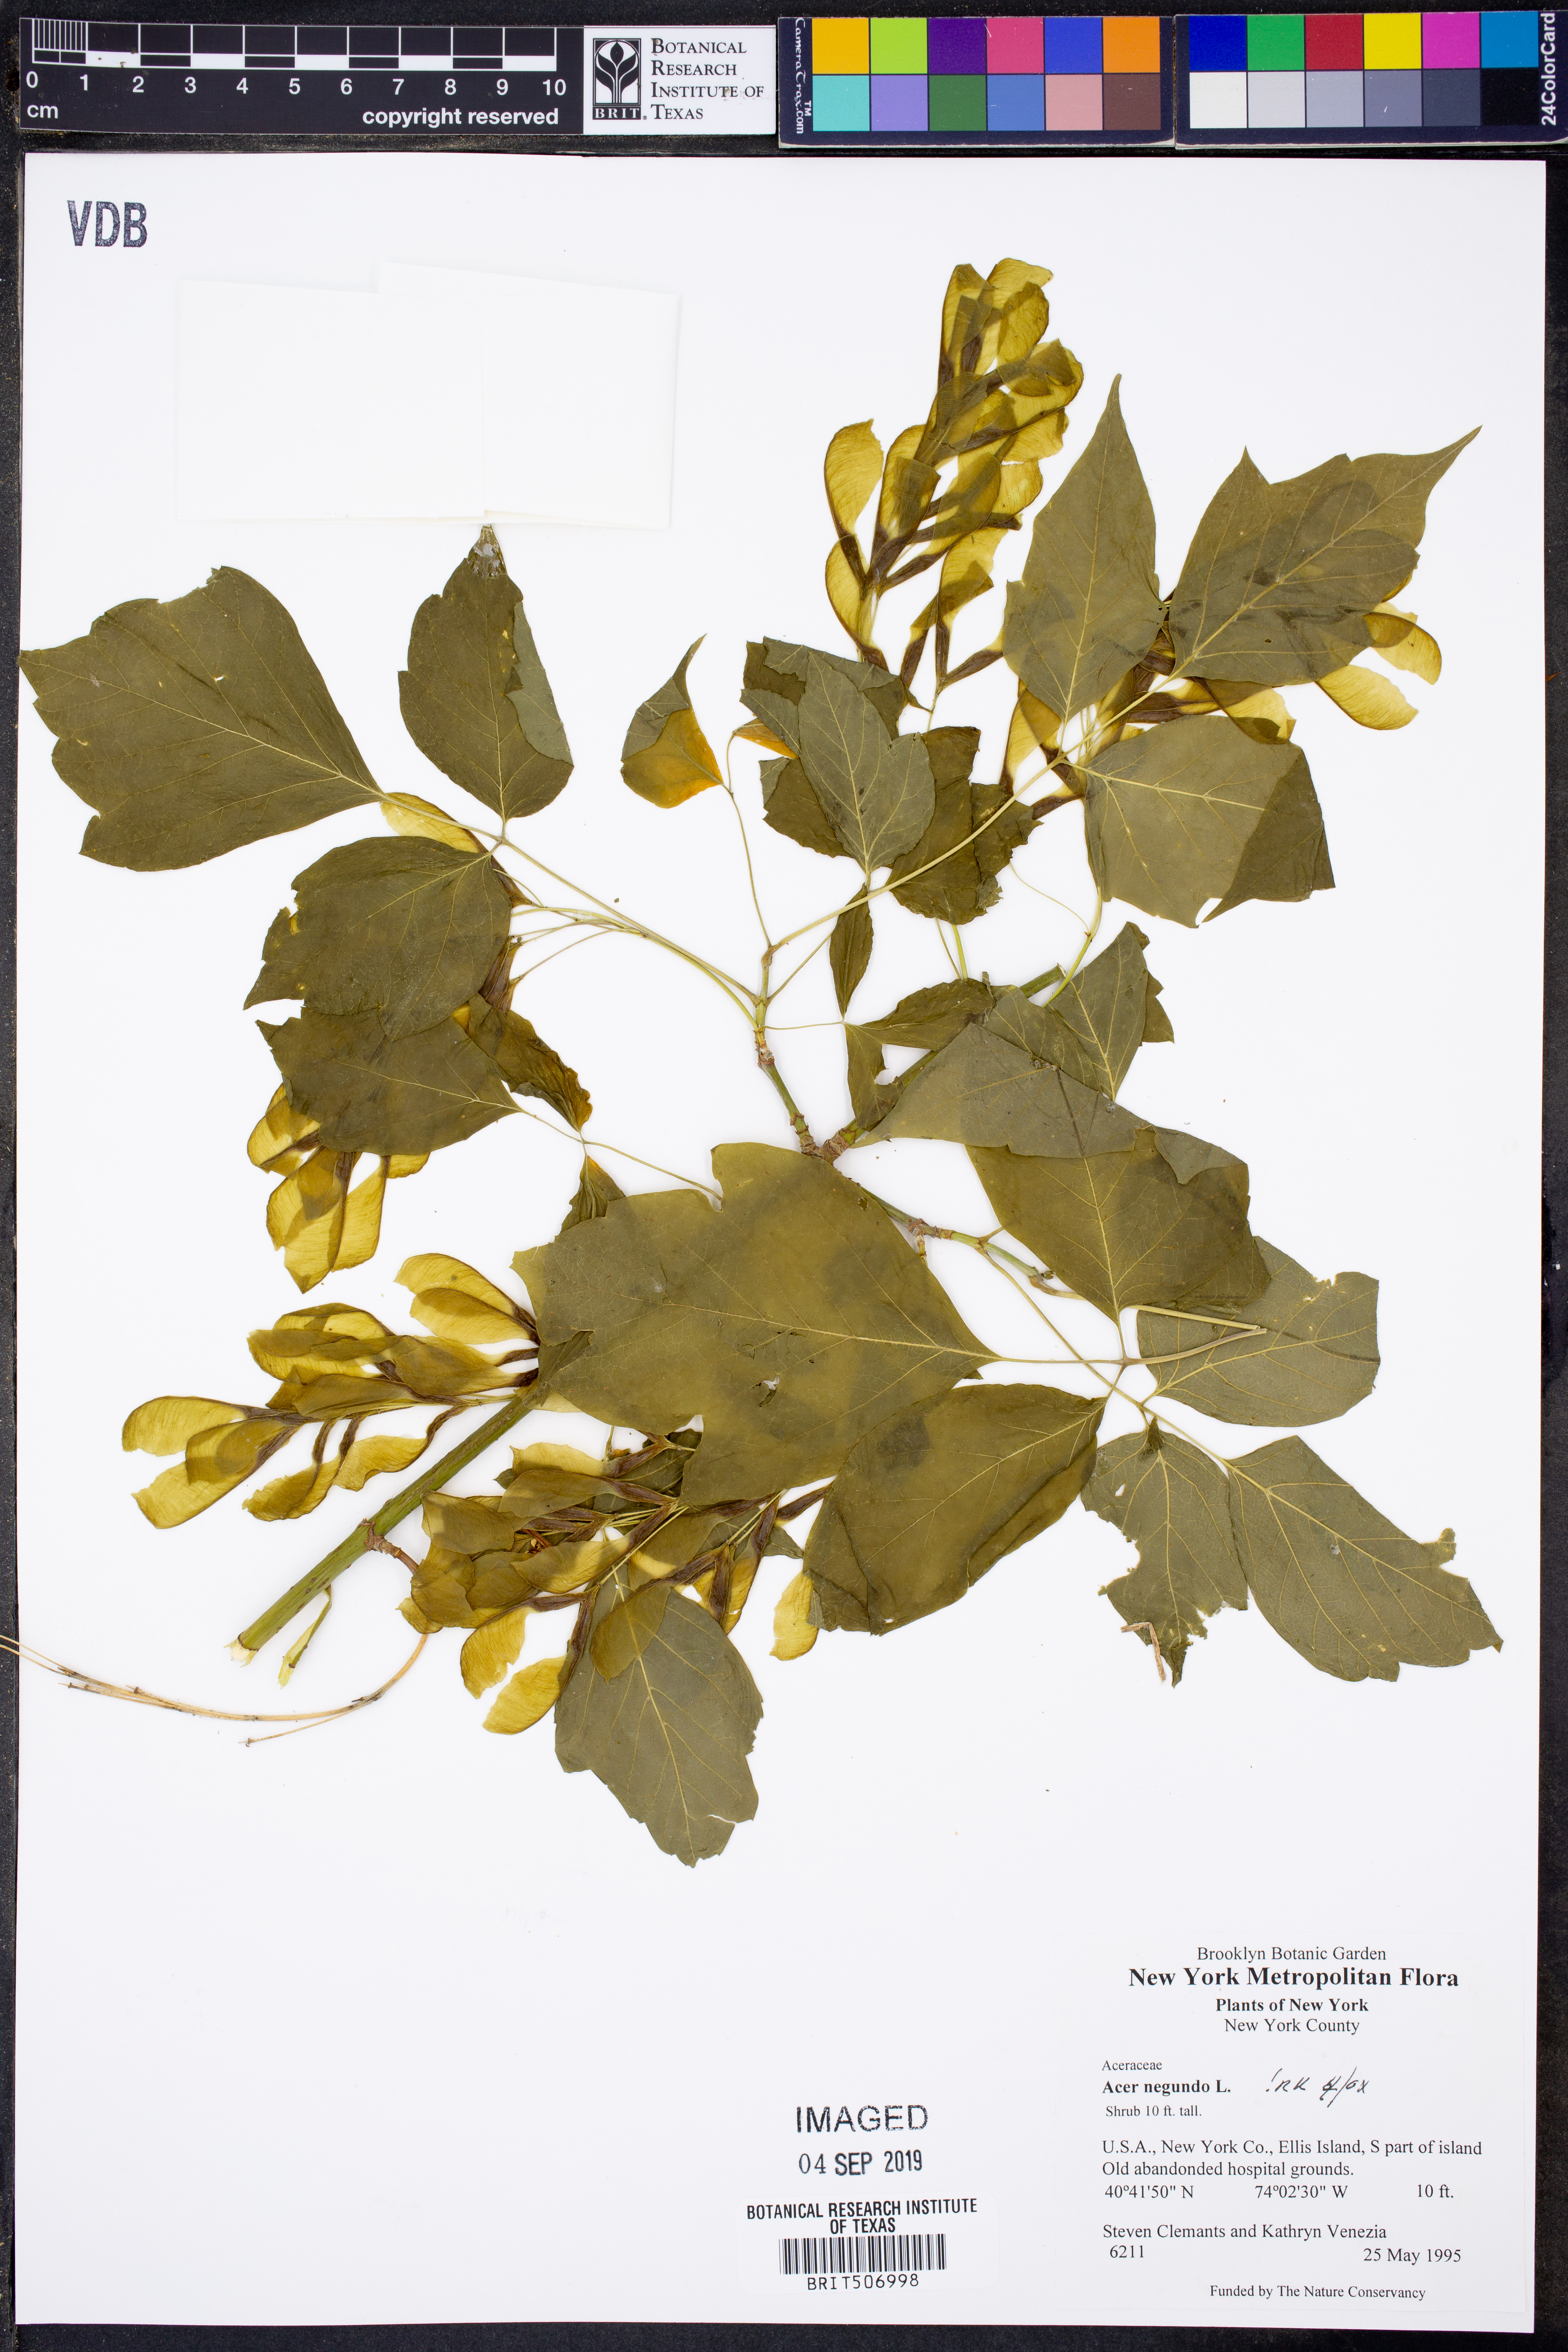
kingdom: Plantae
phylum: Tracheophyta
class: Magnoliopsida
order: Sapindales
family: Sapindaceae
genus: Acer
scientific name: Acer negundo
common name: Ashleaf maple
